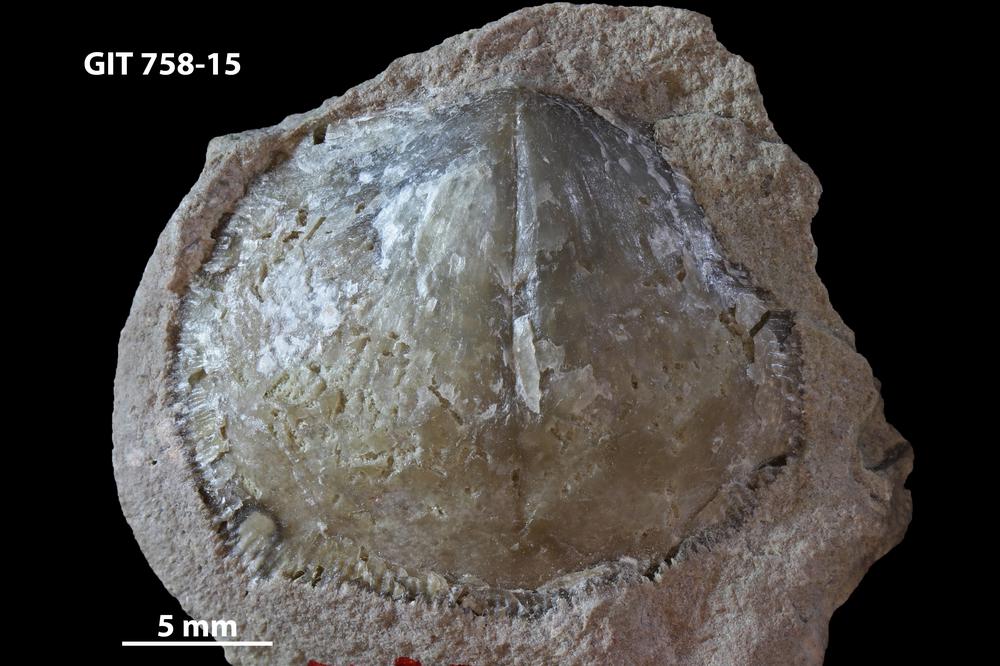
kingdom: Animalia
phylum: Brachiopoda
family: Gonambonitidae
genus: Estlandia
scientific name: Estlandia
